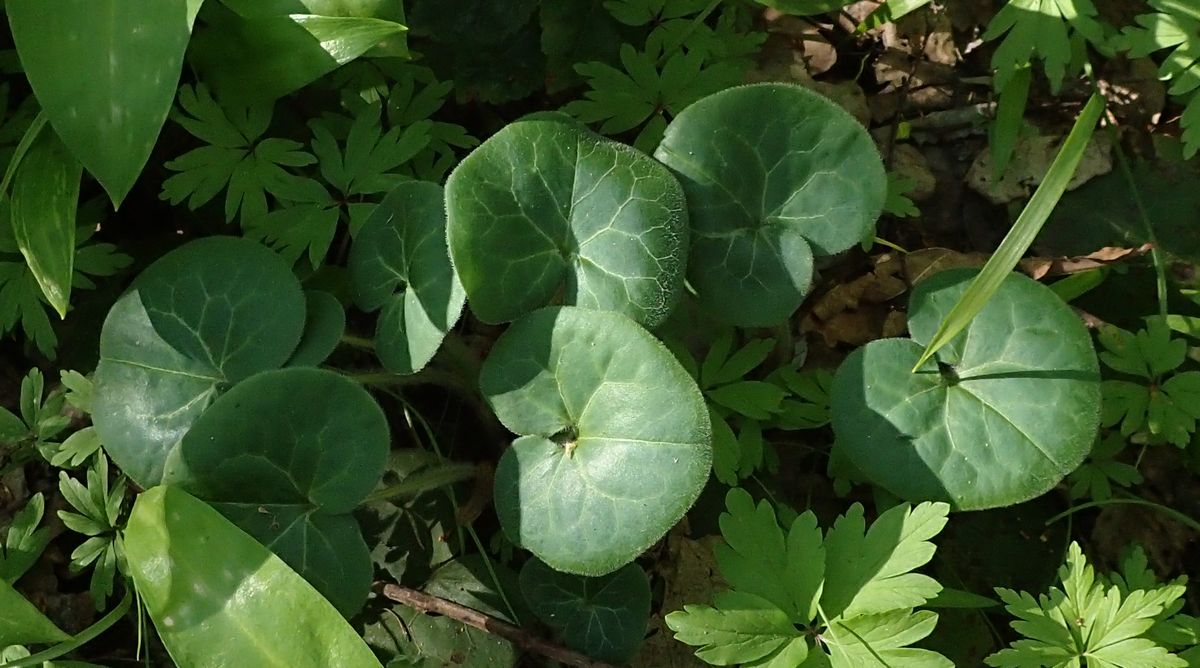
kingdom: Plantae
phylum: Tracheophyta
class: Magnoliopsida
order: Piperales
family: Aristolochiaceae
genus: Asarum
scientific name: Asarum europaeum
